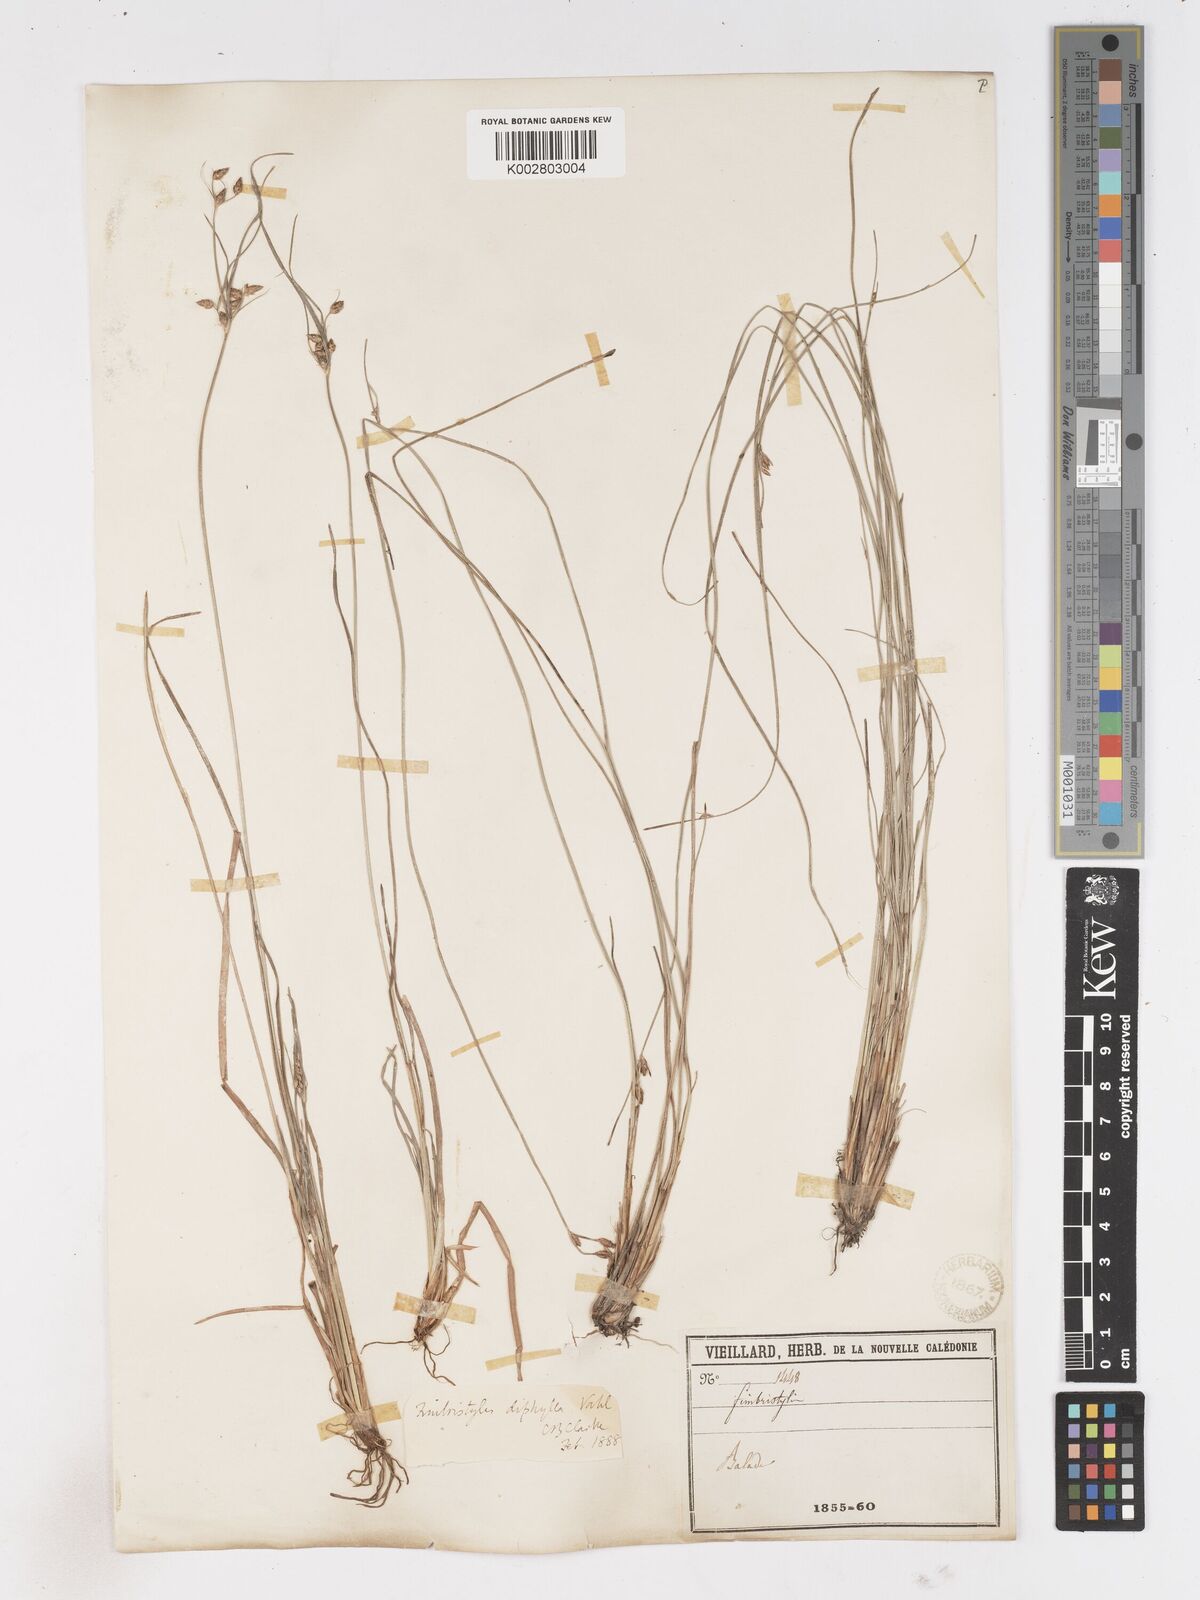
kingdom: Plantae
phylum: Tracheophyta
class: Liliopsida
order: Poales
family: Cyperaceae
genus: Fimbristylis
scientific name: Fimbristylis dichotoma
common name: Forked fimbry
